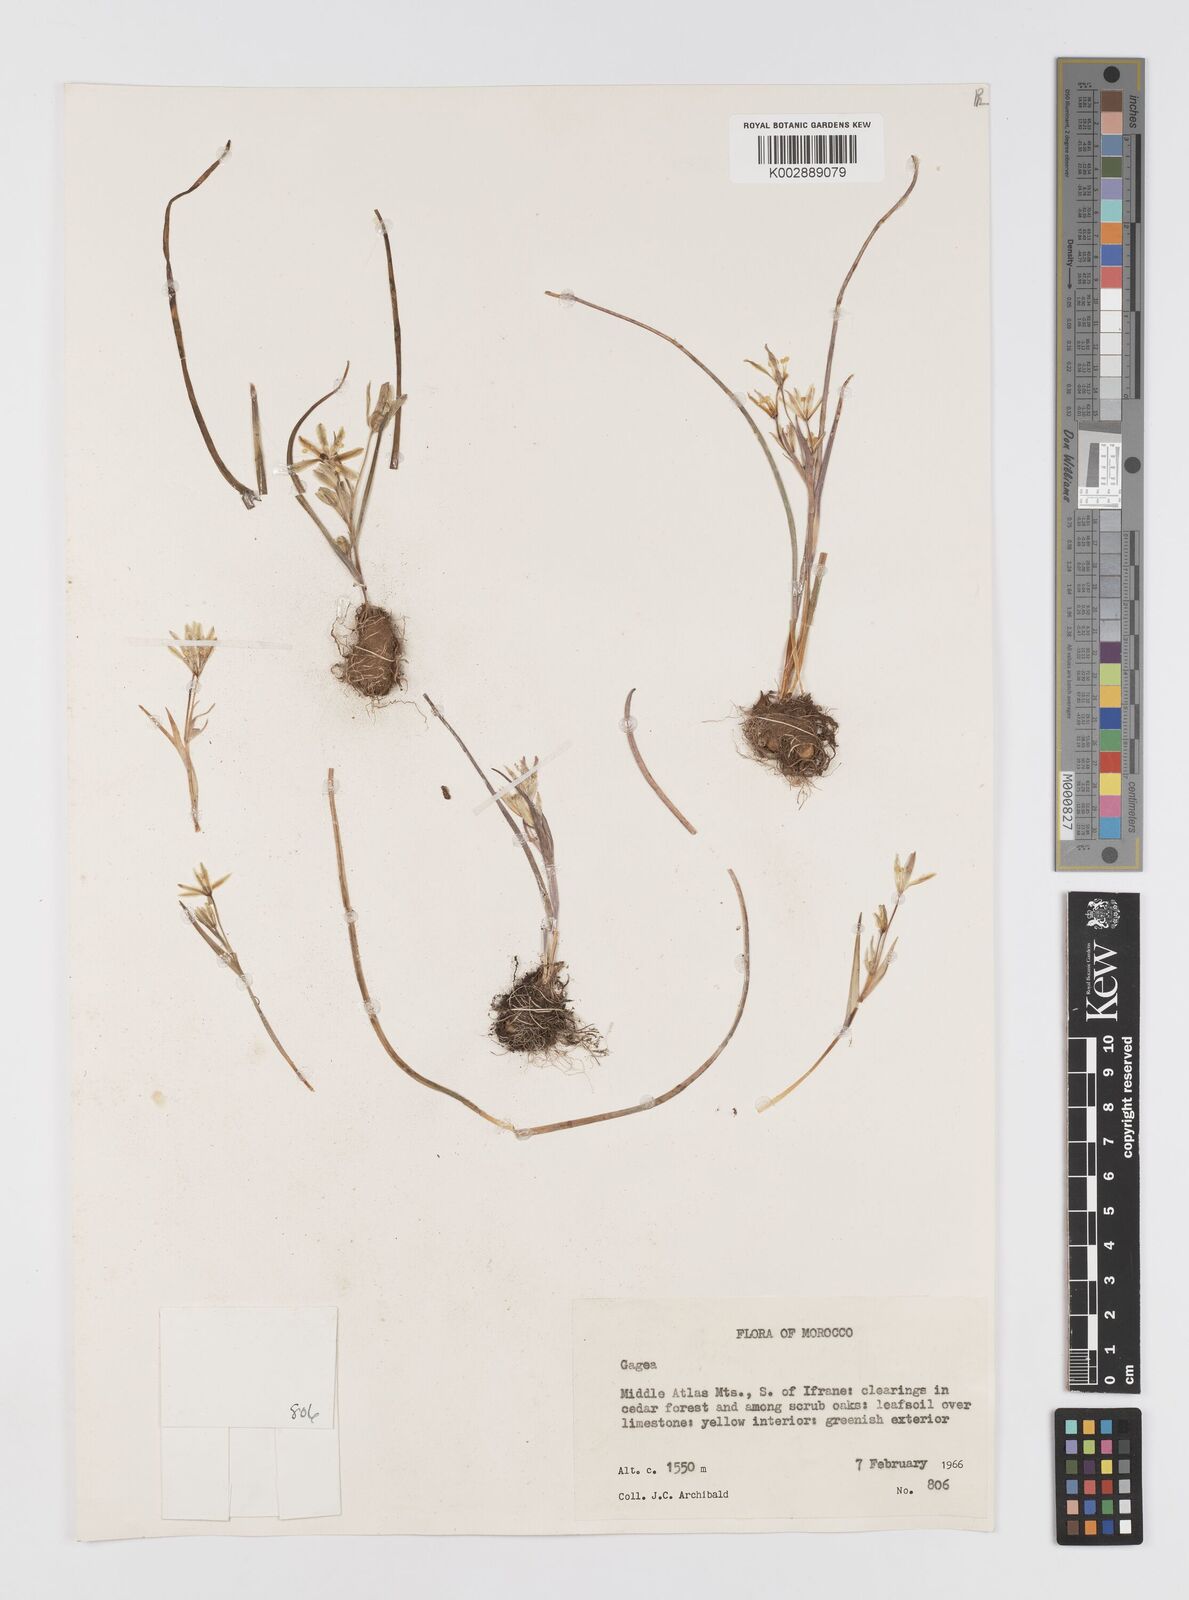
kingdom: Plantae
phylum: Tracheophyta
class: Liliopsida
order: Liliales
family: Liliaceae
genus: Gagea
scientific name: Gagea algeriensis
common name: Algerian gagea
